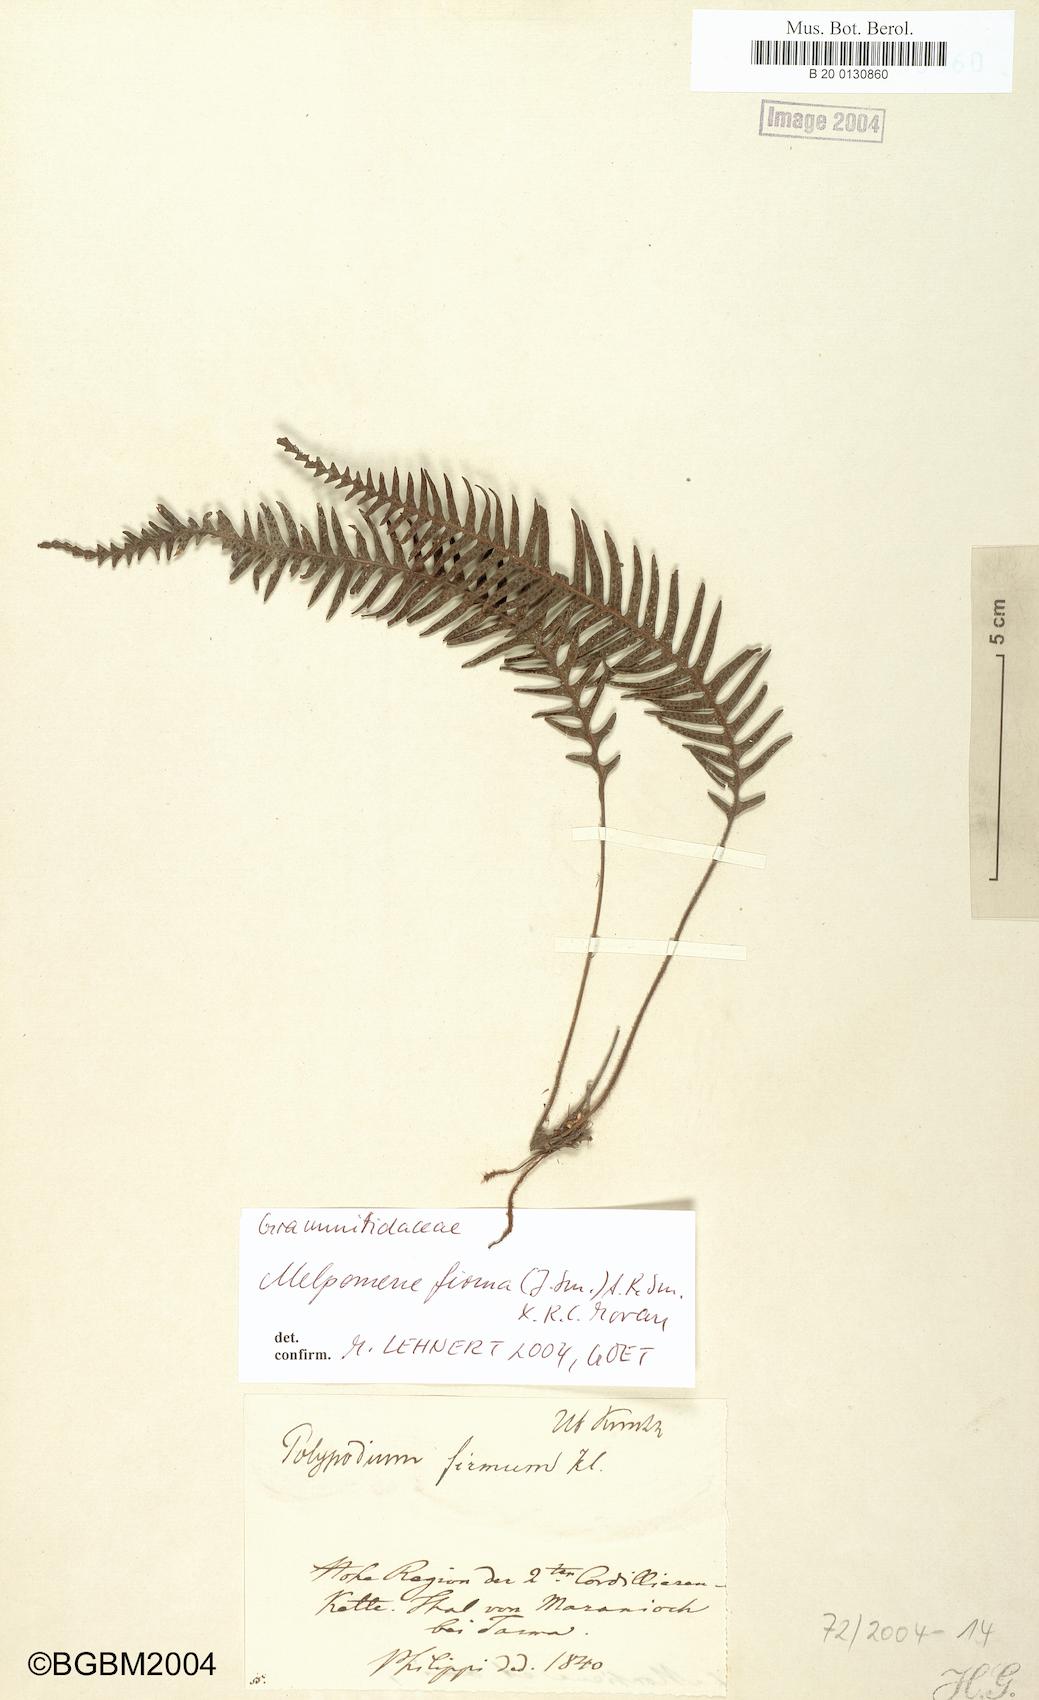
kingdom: Plantae
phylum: Tracheophyta
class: Polypodiopsida
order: Polypodiales
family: Polypodiaceae
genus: Melpomene
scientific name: Melpomene firma
